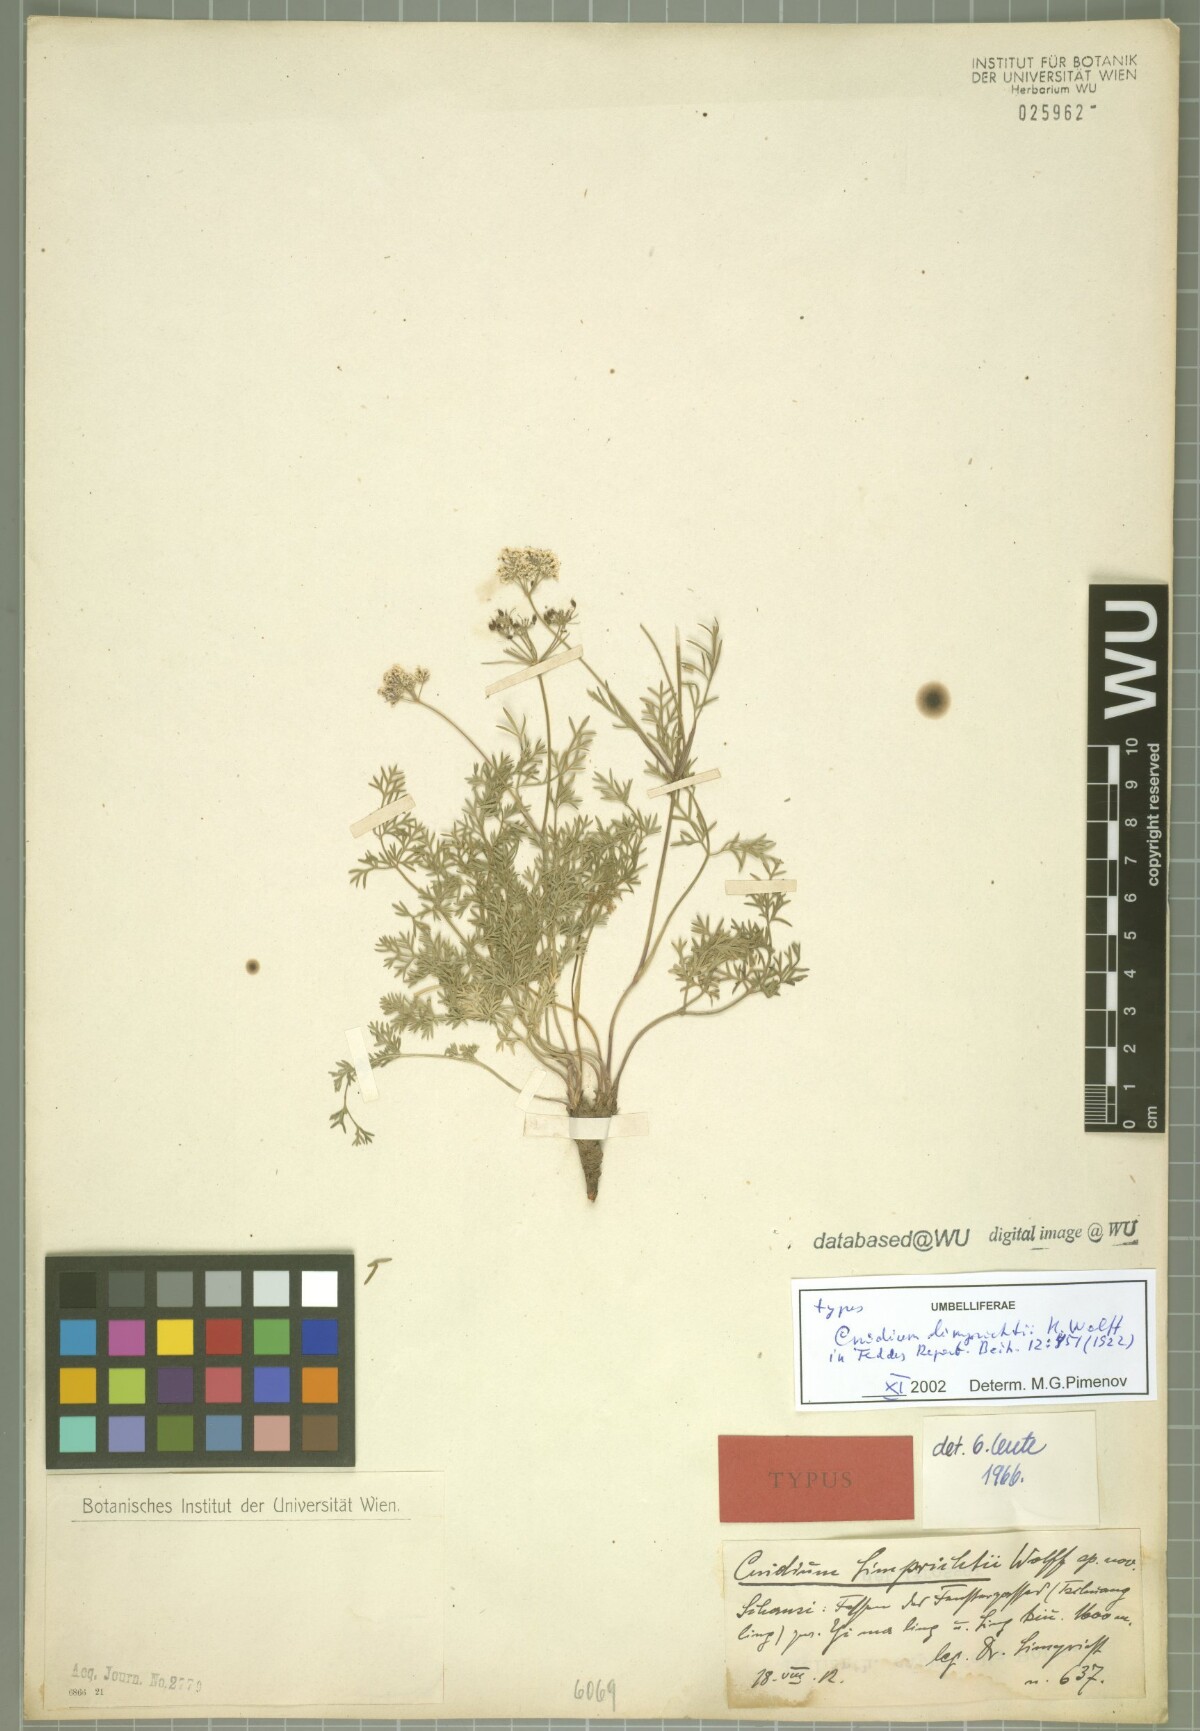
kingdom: Plantae
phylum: Tracheophyta
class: Magnoliopsida
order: Apiales
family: Apiaceae
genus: Rupiphila
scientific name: Rupiphila tachiroei
